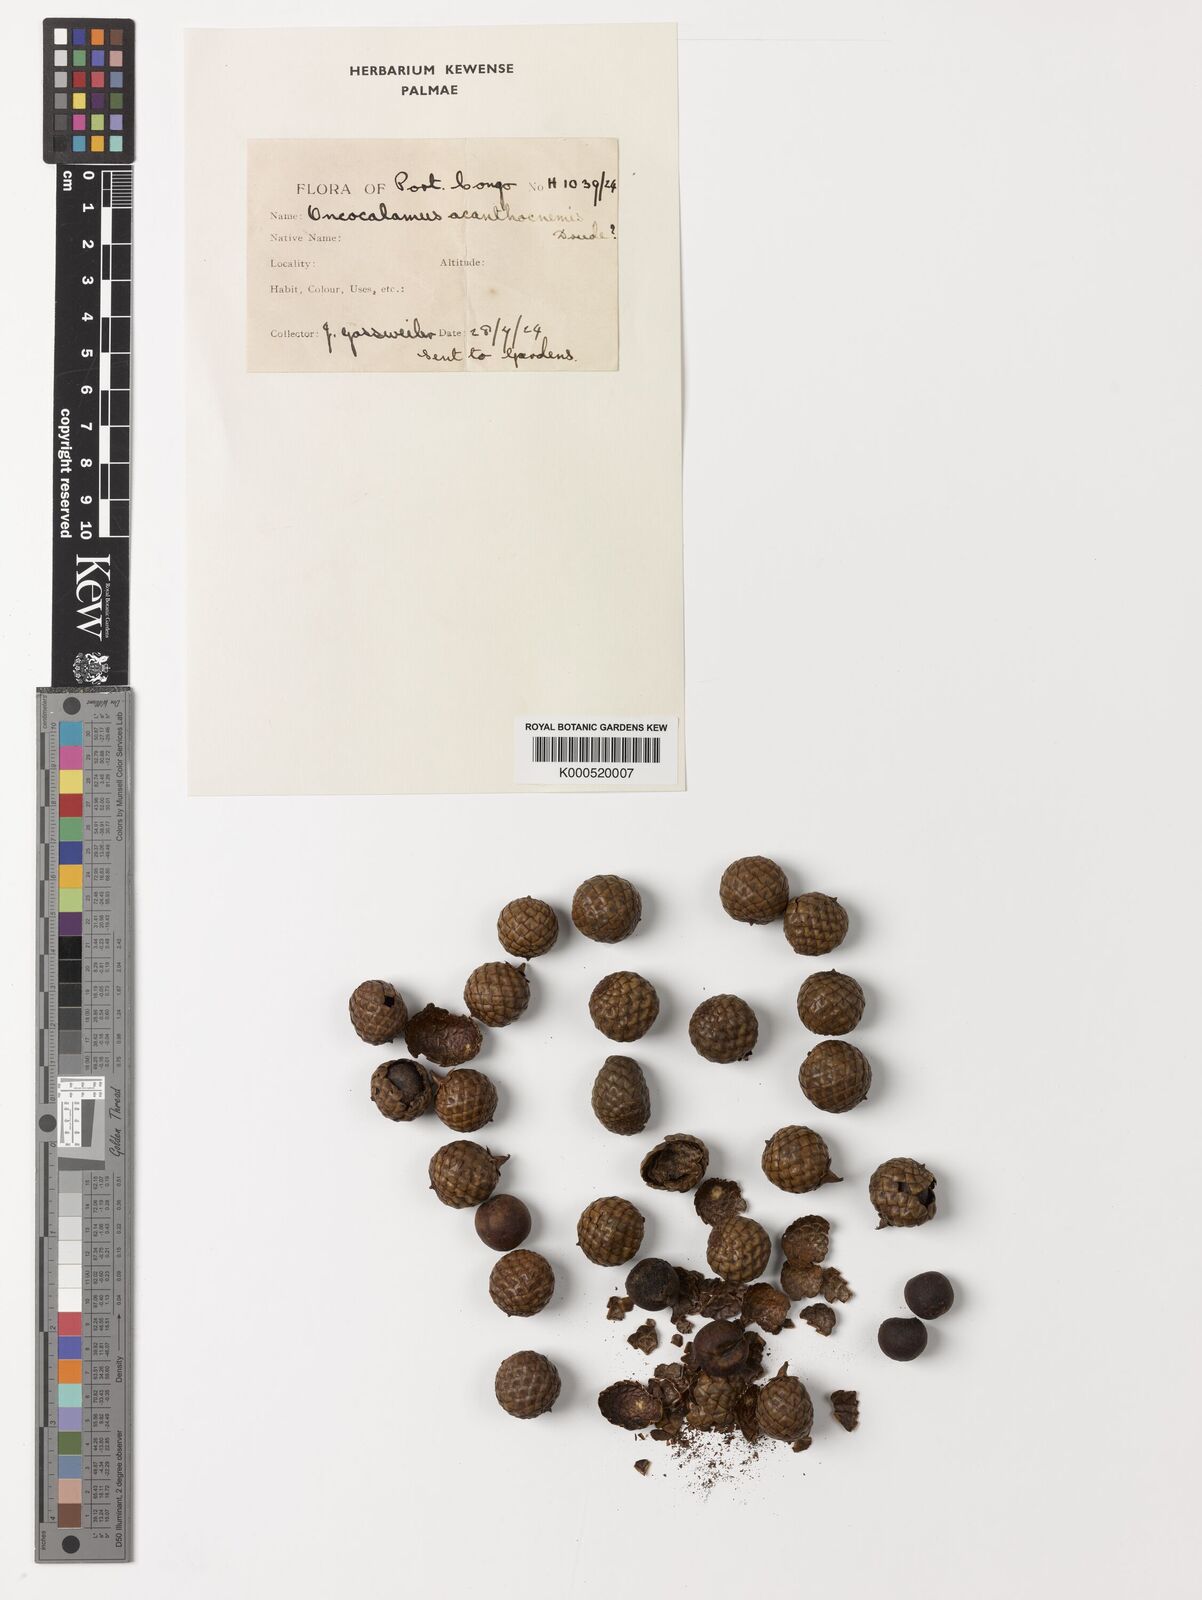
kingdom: Plantae
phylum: Tracheophyta
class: Liliopsida
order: Arecales
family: Arecaceae
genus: Oncocalamus
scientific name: Oncocalamus mannii
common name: Rattan
